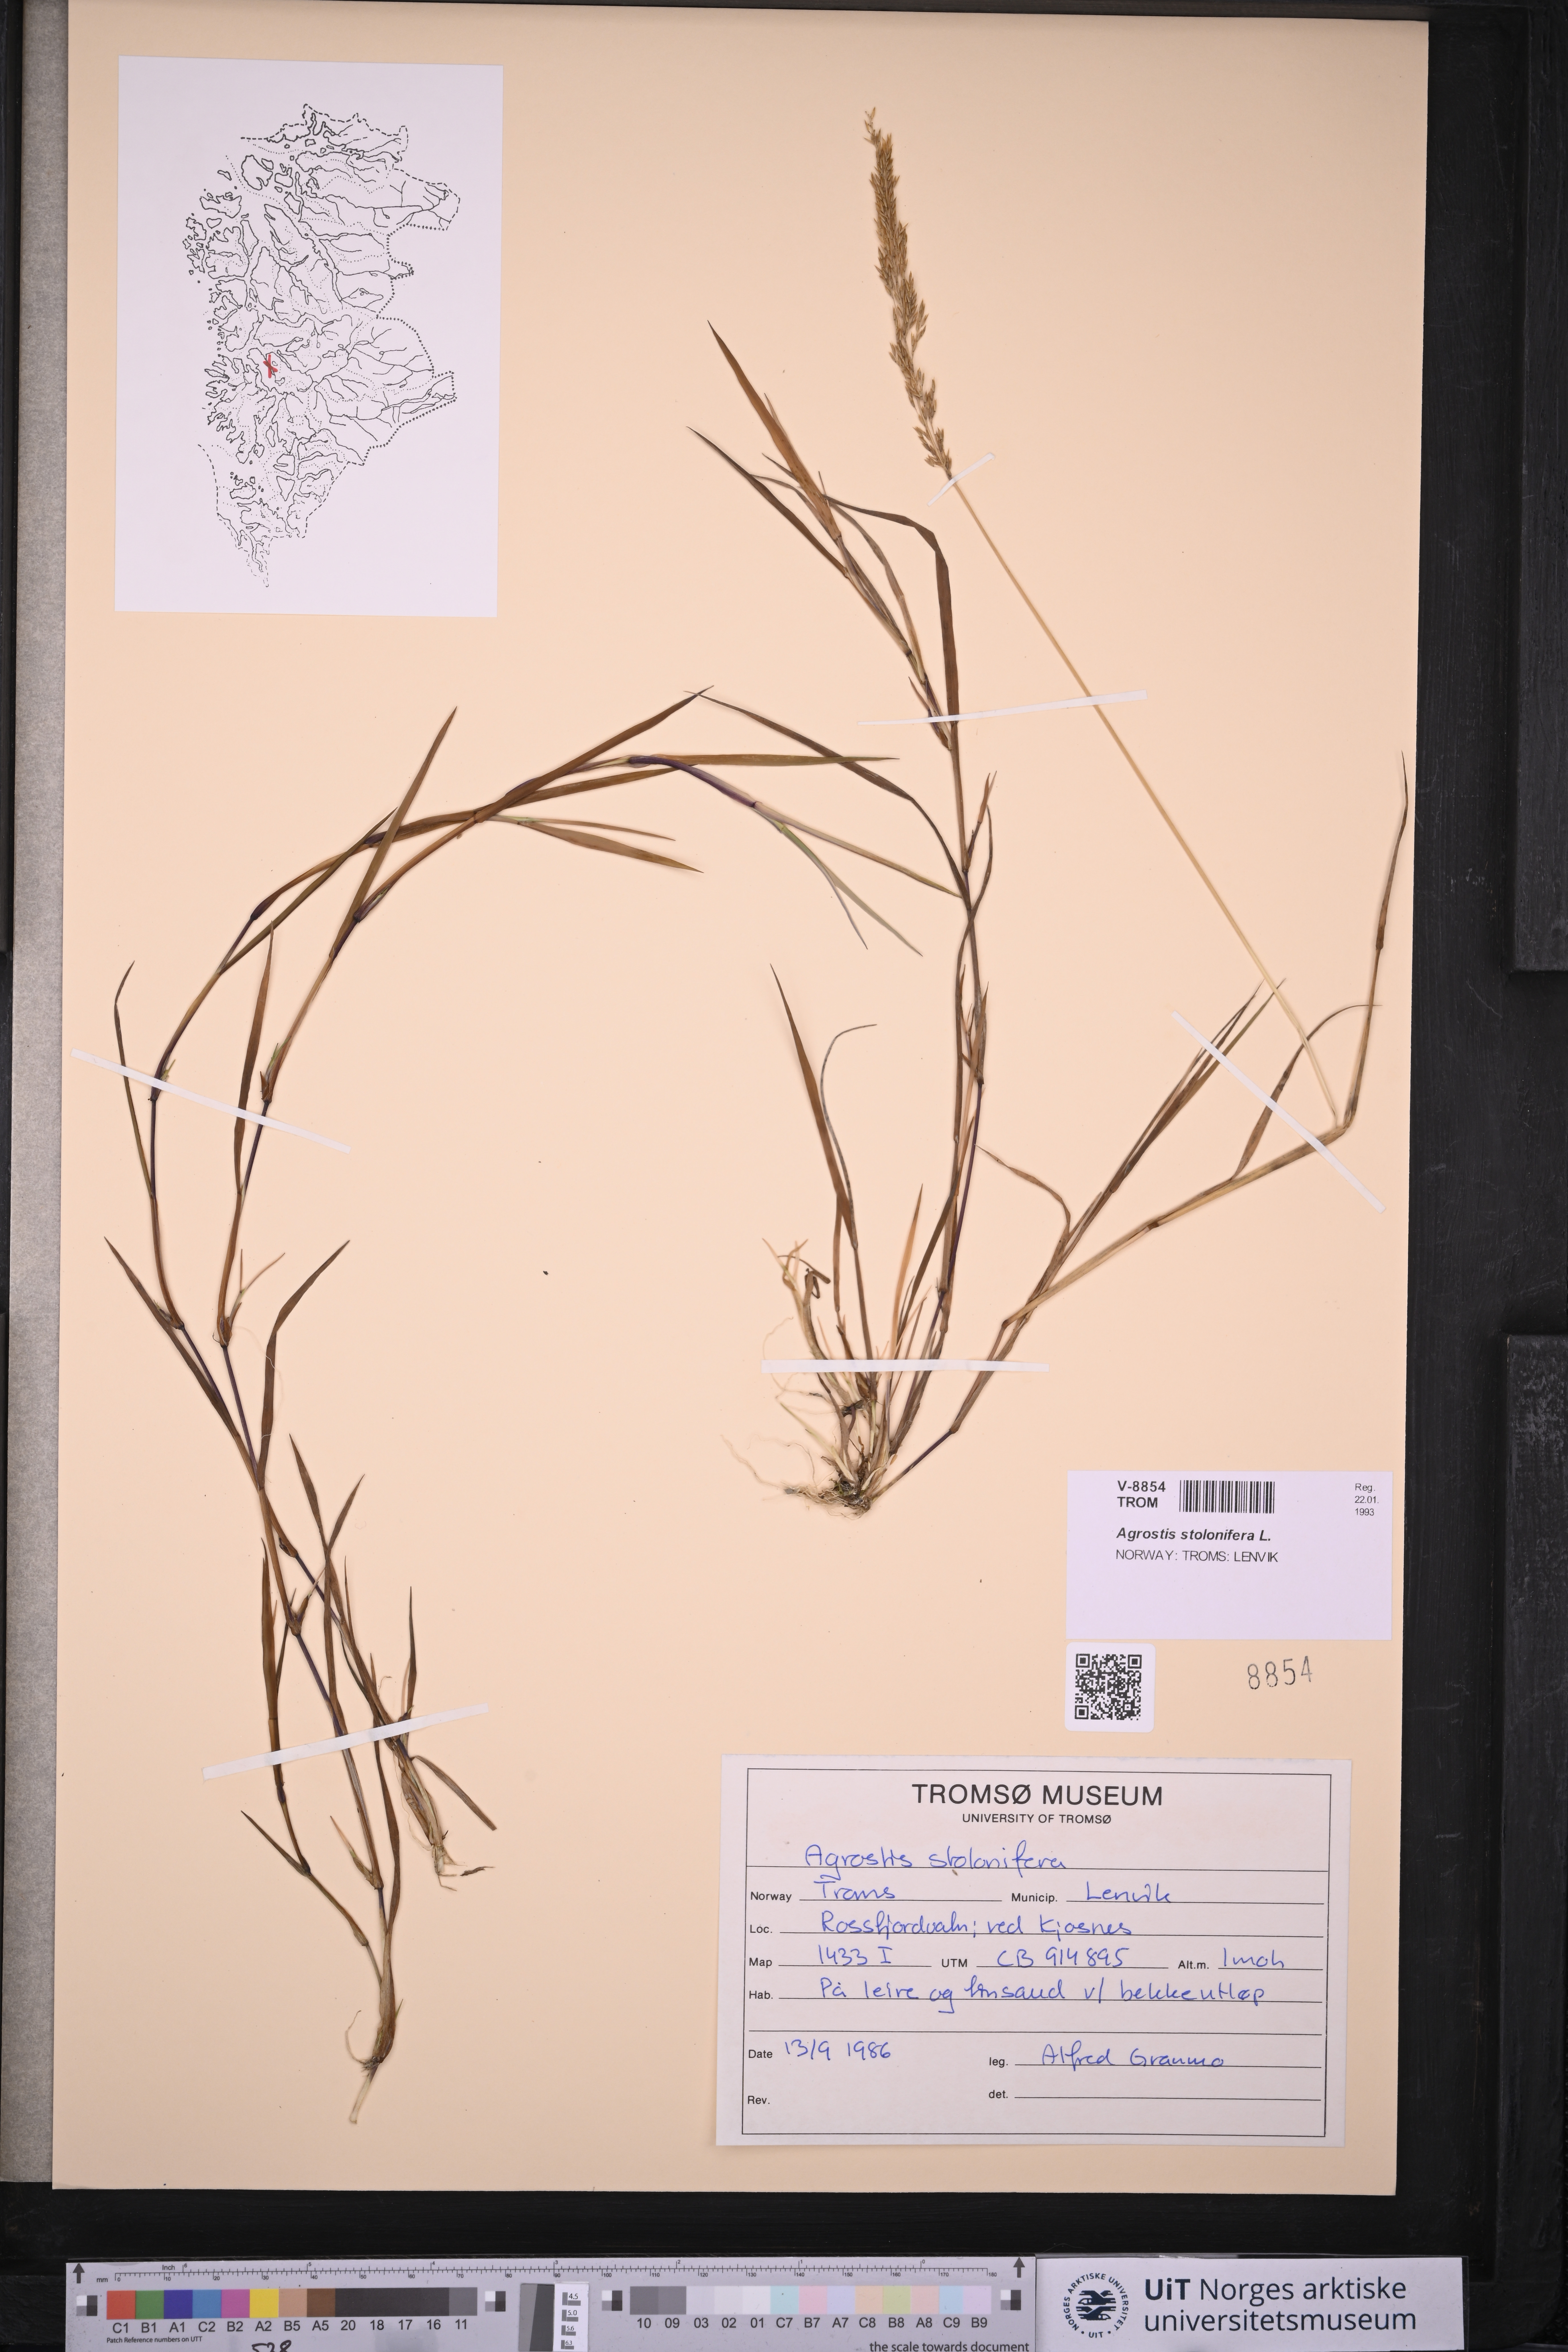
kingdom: Plantae
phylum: Tracheophyta
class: Liliopsida
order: Poales
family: Poaceae
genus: Agrostis
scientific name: Agrostis stolonifera
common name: Creeping bentgrass
